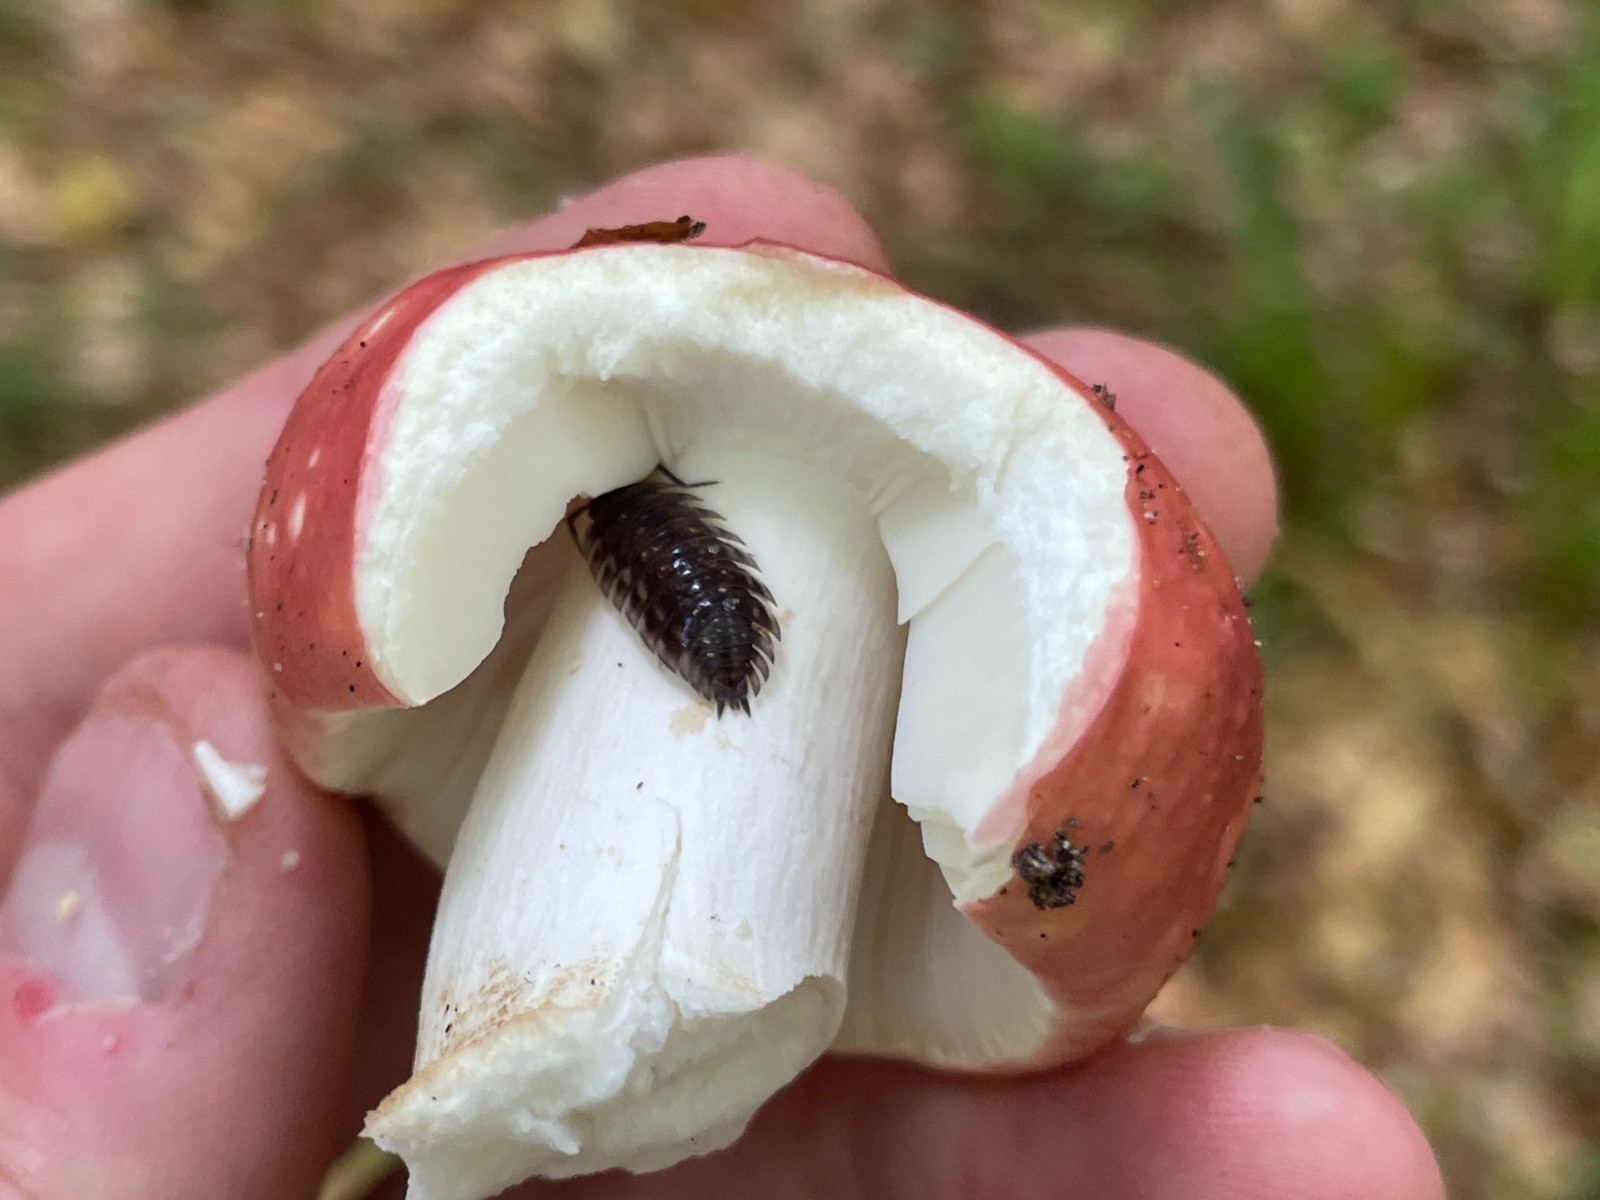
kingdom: Fungi
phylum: Basidiomycota
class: Agaricomycetes
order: Russulales
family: Russulaceae
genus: Russula
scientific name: Russula olivacea
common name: stor skørhat
